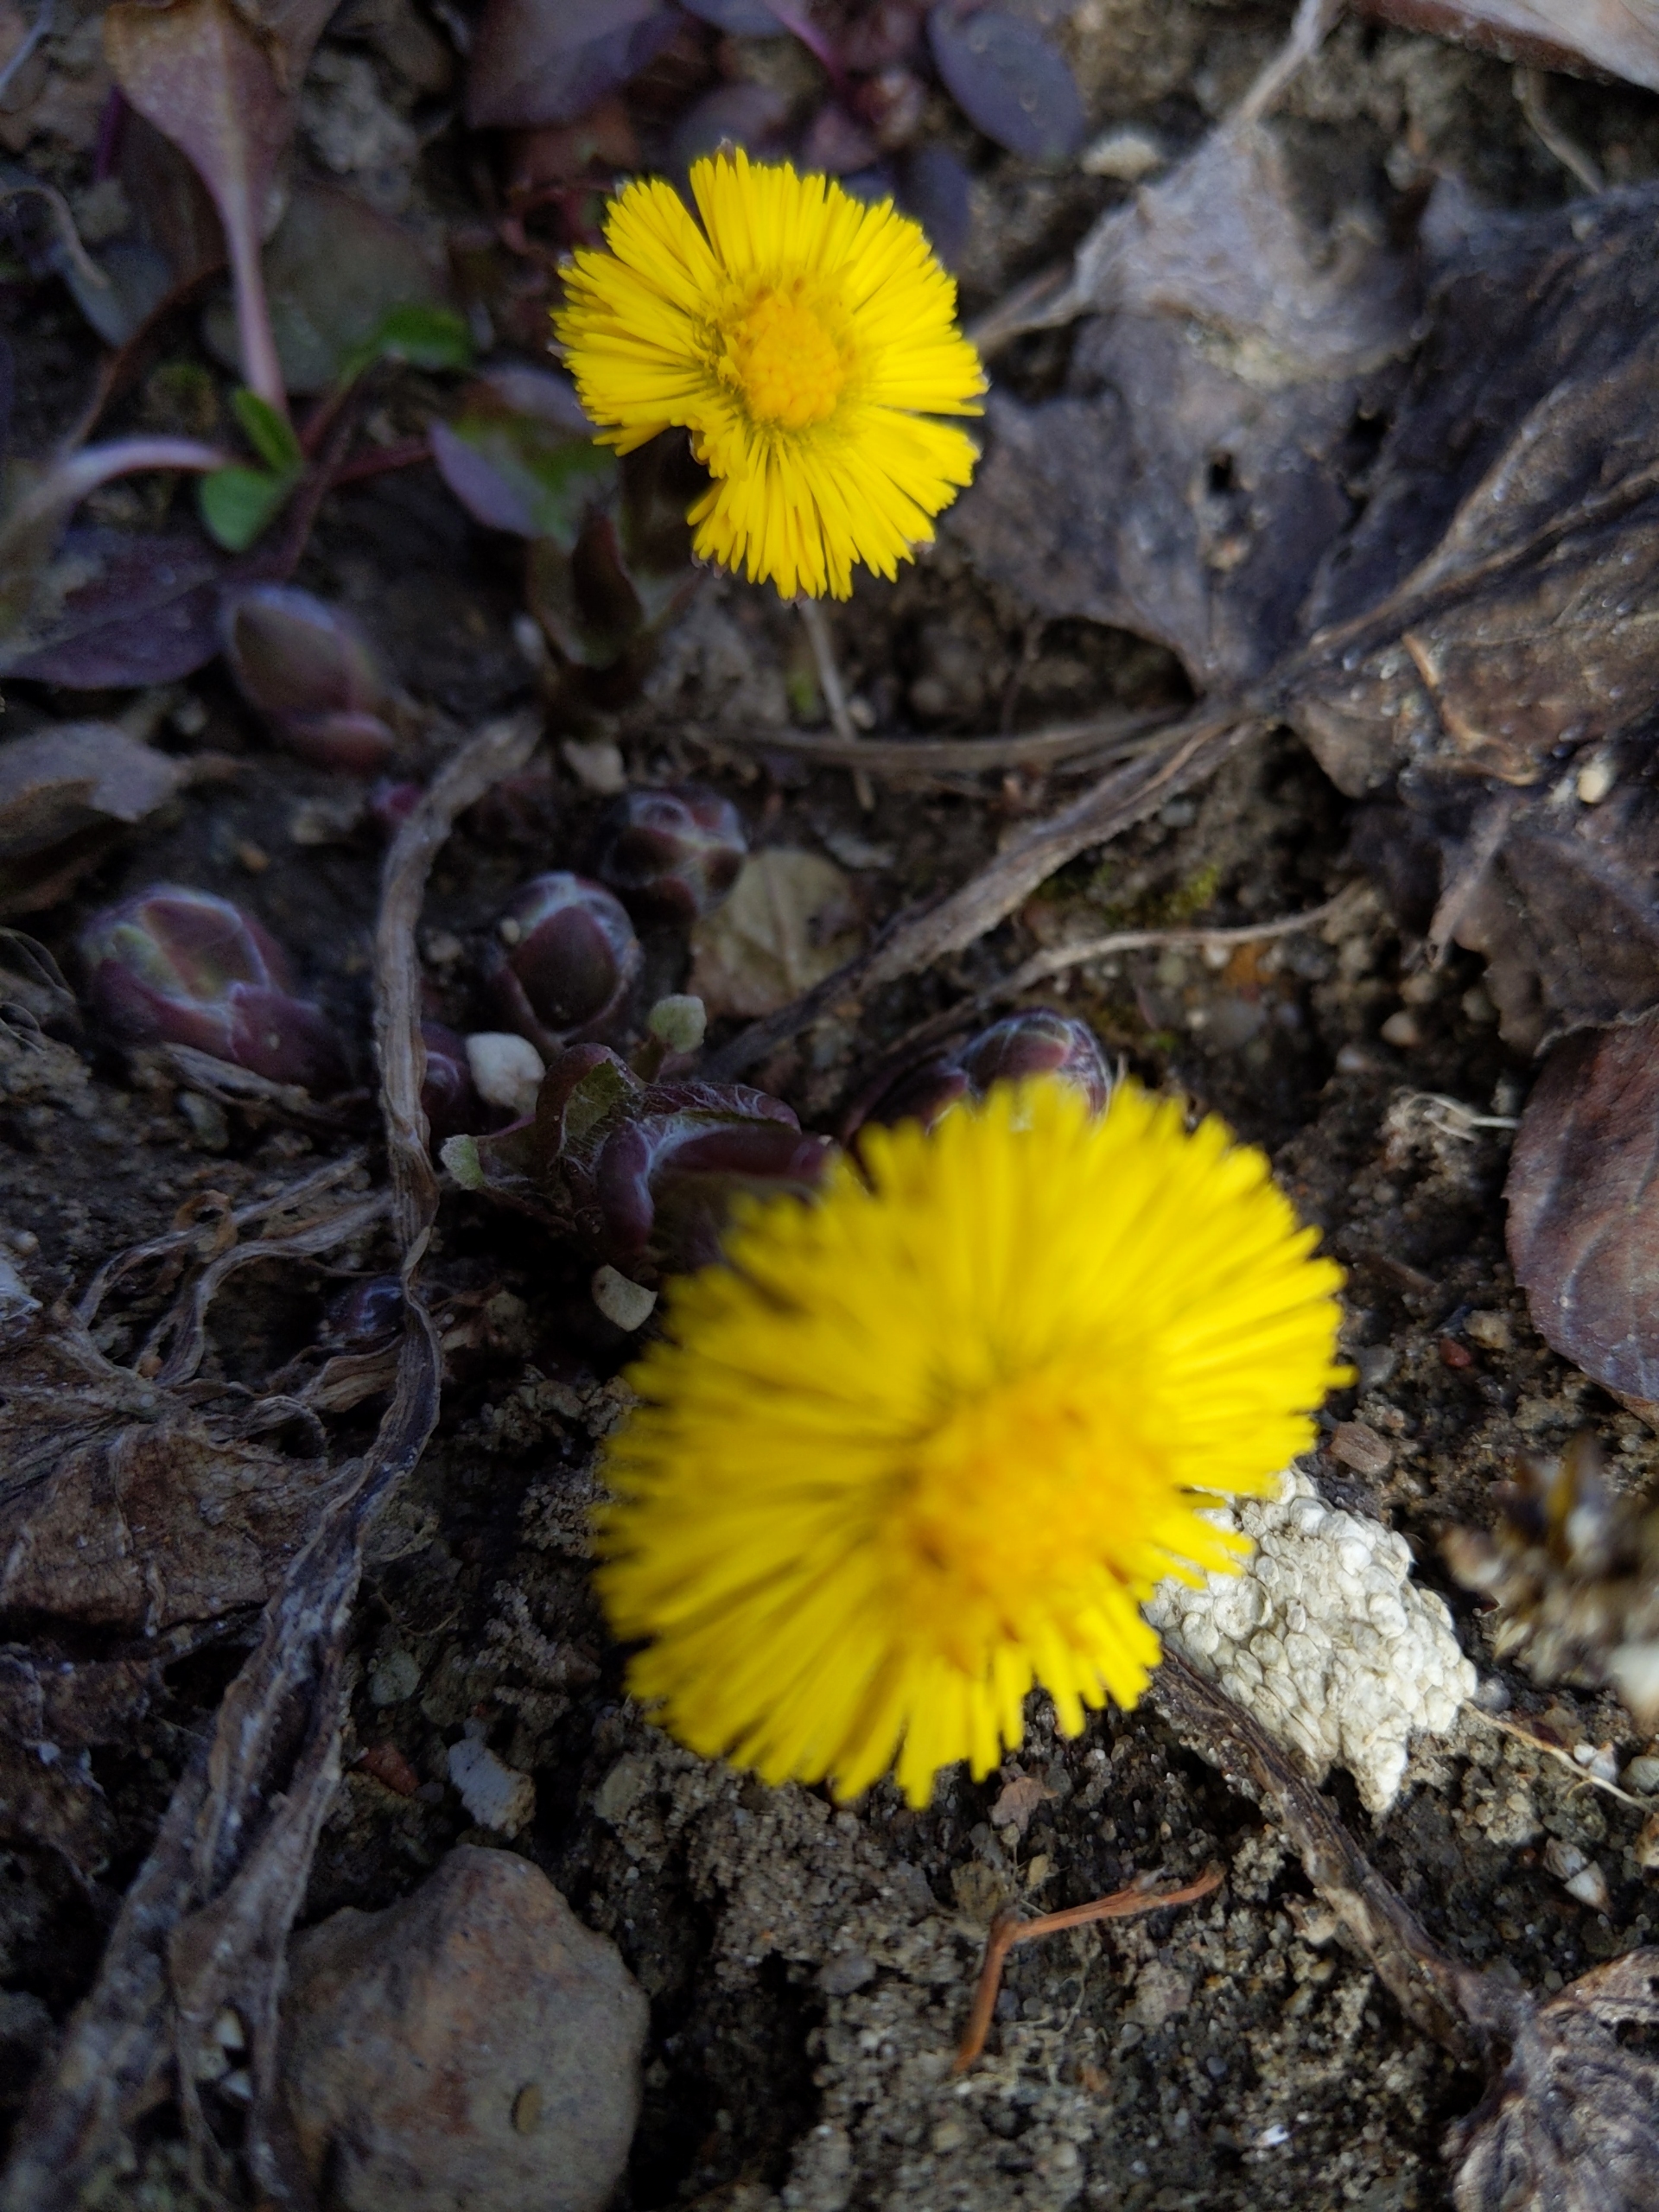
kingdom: Plantae
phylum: Tracheophyta
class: Magnoliopsida
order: Asterales
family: Asteraceae
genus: Tussilago
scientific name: Tussilago farfara
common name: Følfod
